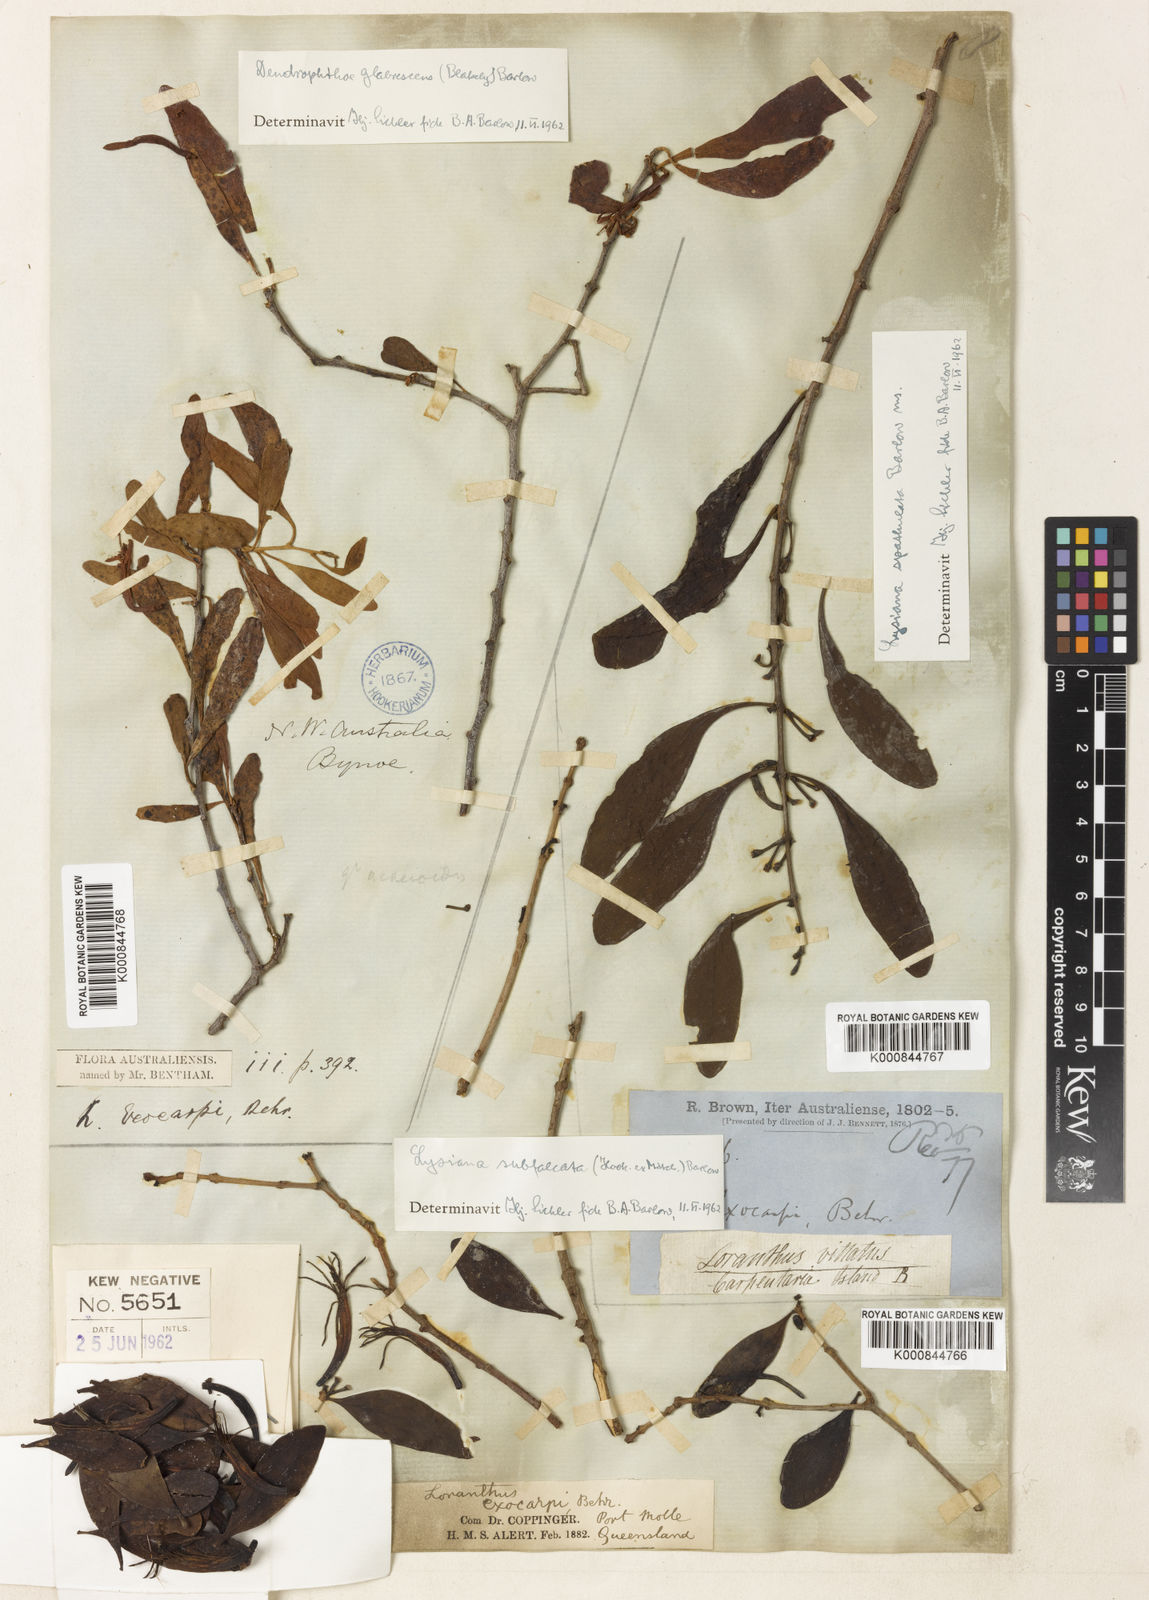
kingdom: Plantae
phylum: Tracheophyta
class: Magnoliopsida
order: Santalales
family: Loranthaceae
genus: Lysiana
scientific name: Lysiana exocarpi
